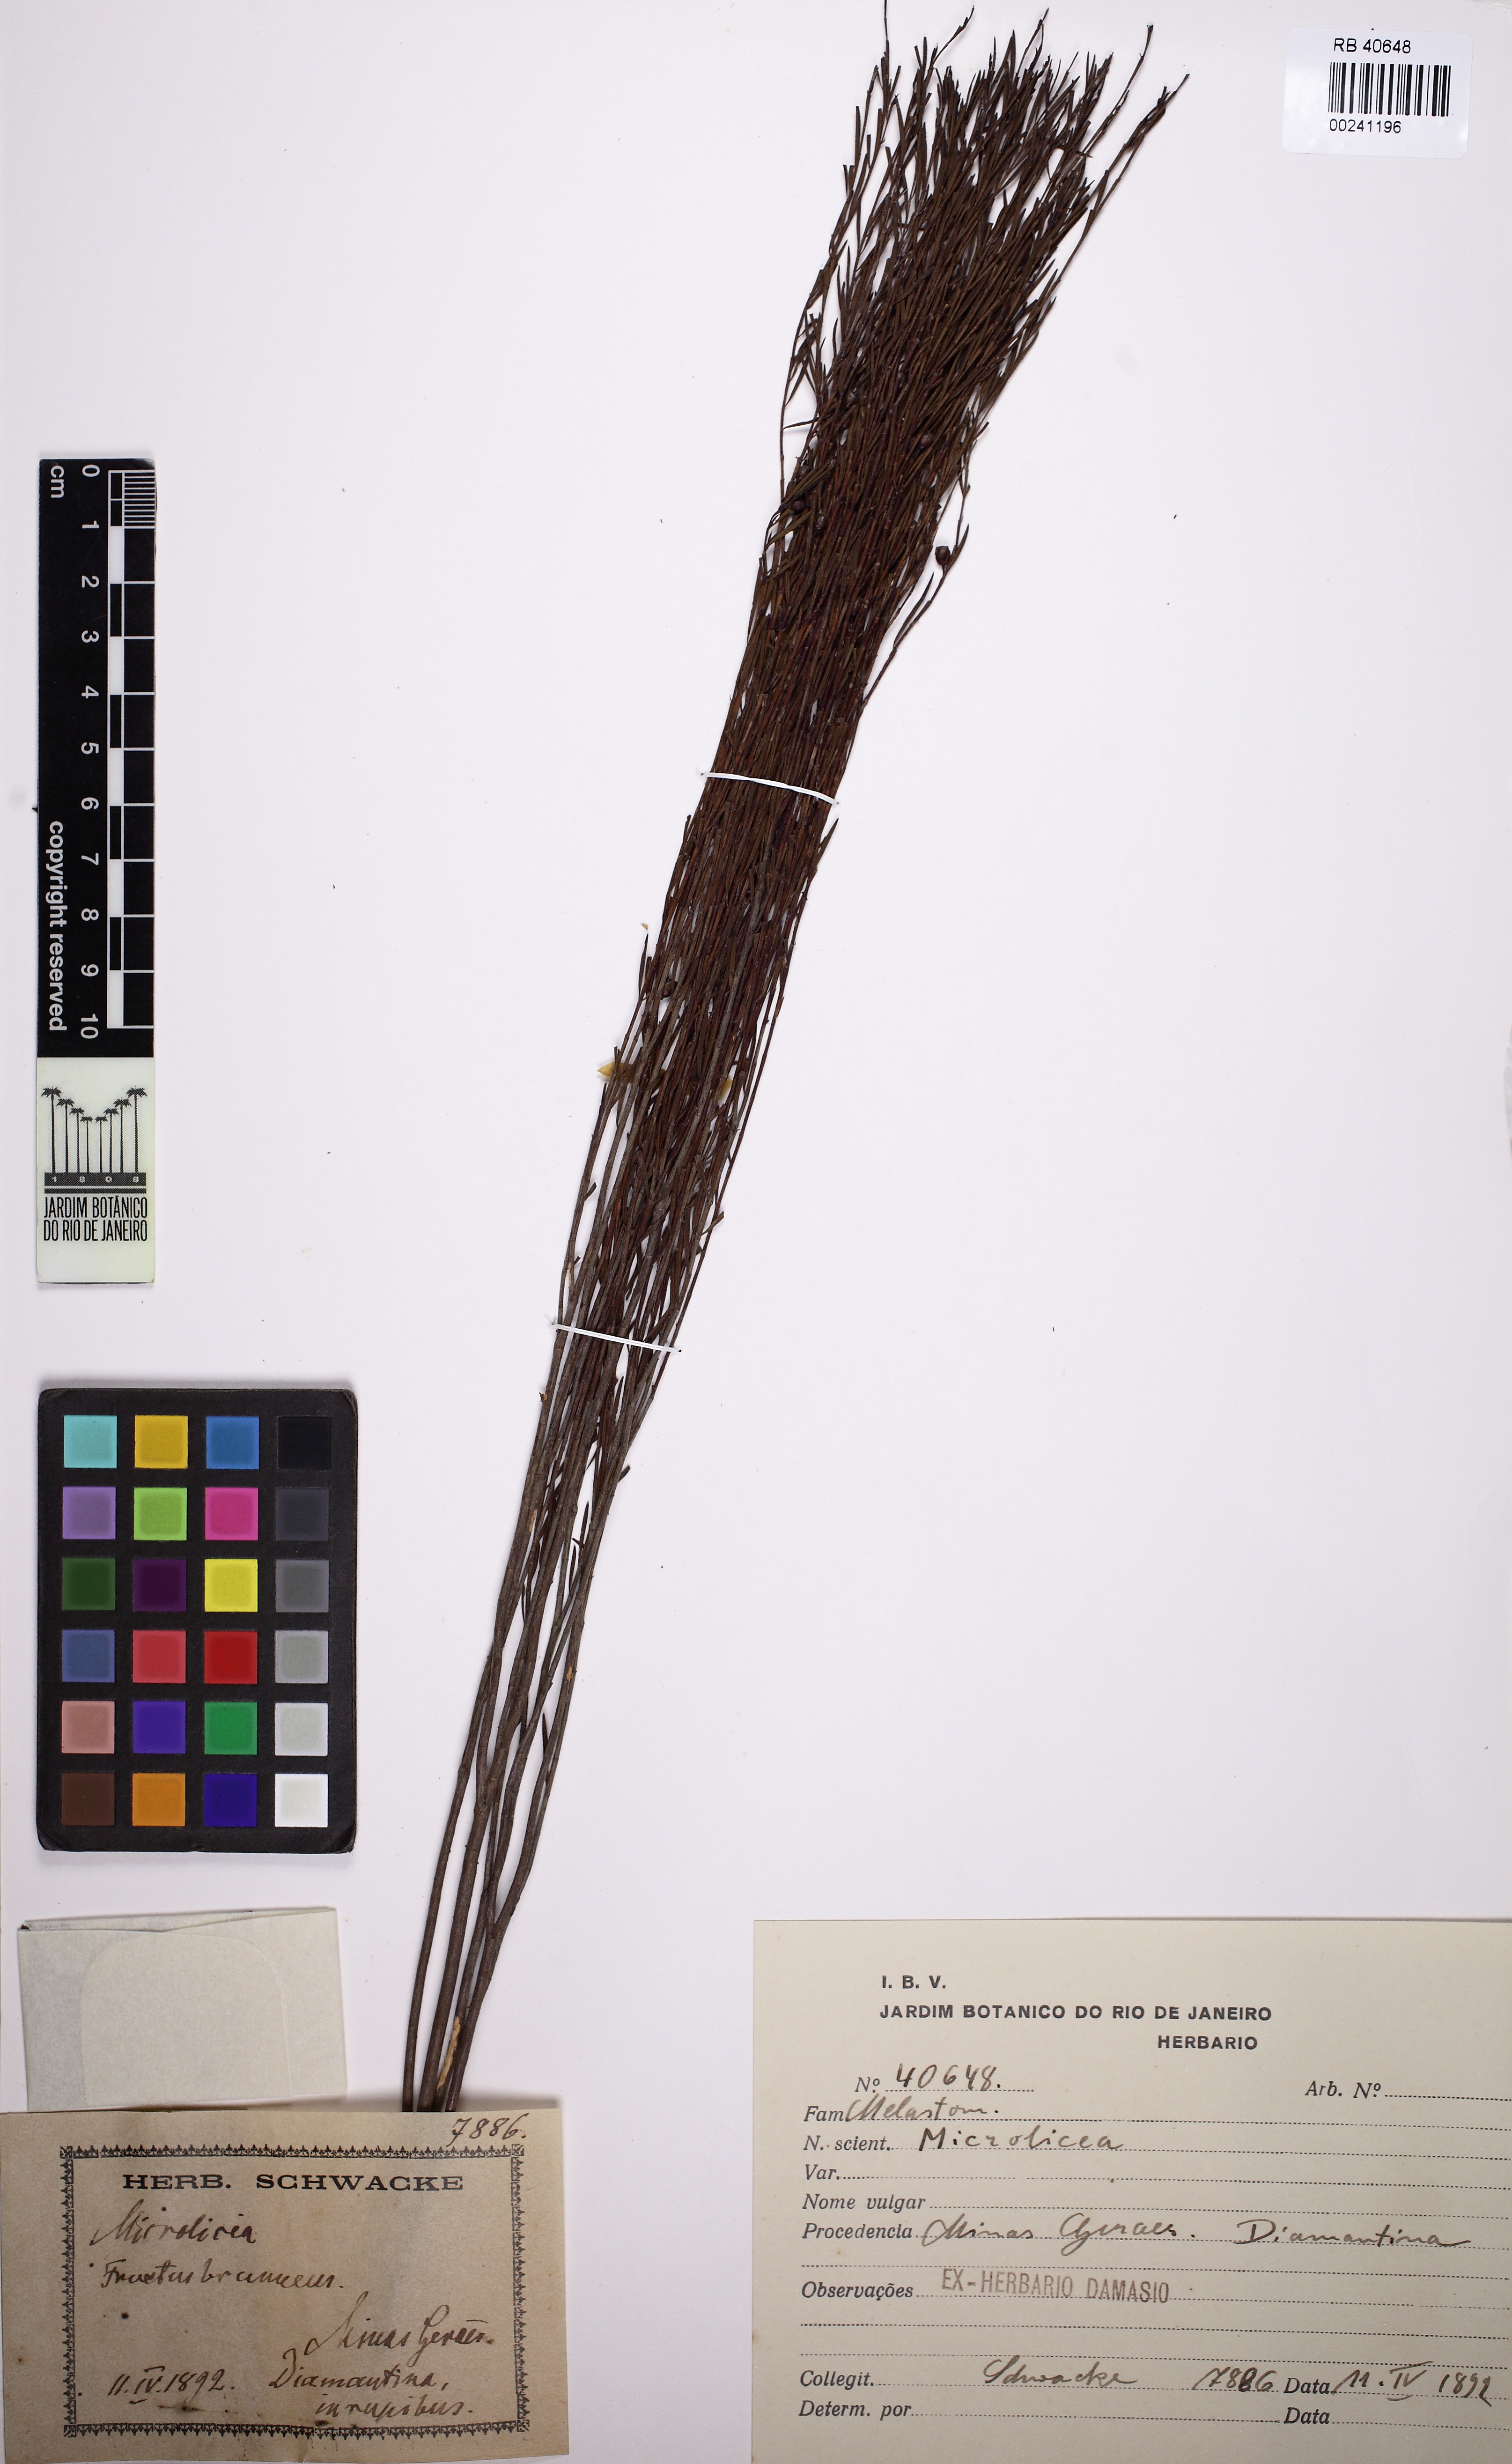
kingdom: Plantae
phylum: Tracheophyta
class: Magnoliopsida
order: Myrtales
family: Melastomataceae
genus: Microlicia
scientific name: Microlicia acerosa
